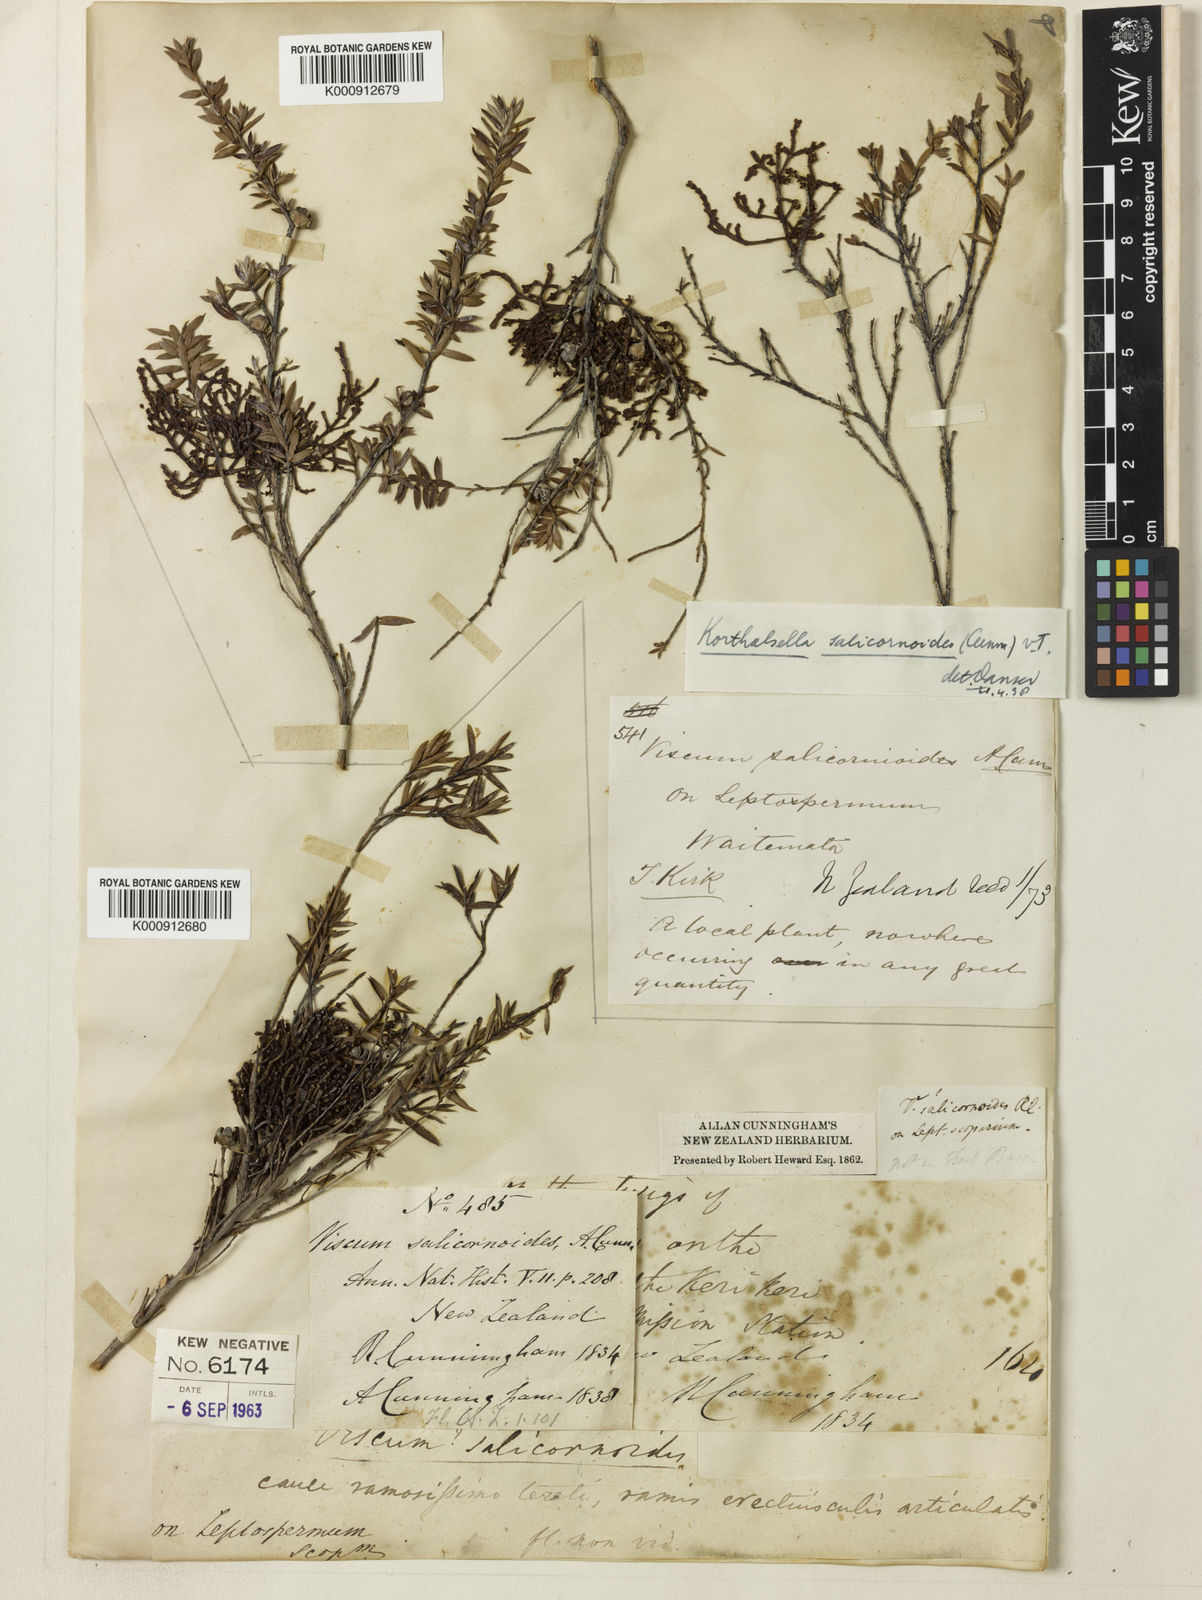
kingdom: Plantae
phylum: Tracheophyta
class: Magnoliopsida
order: Santalales
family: Viscaceae
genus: Korthalsella
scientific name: Korthalsella salicornioides
